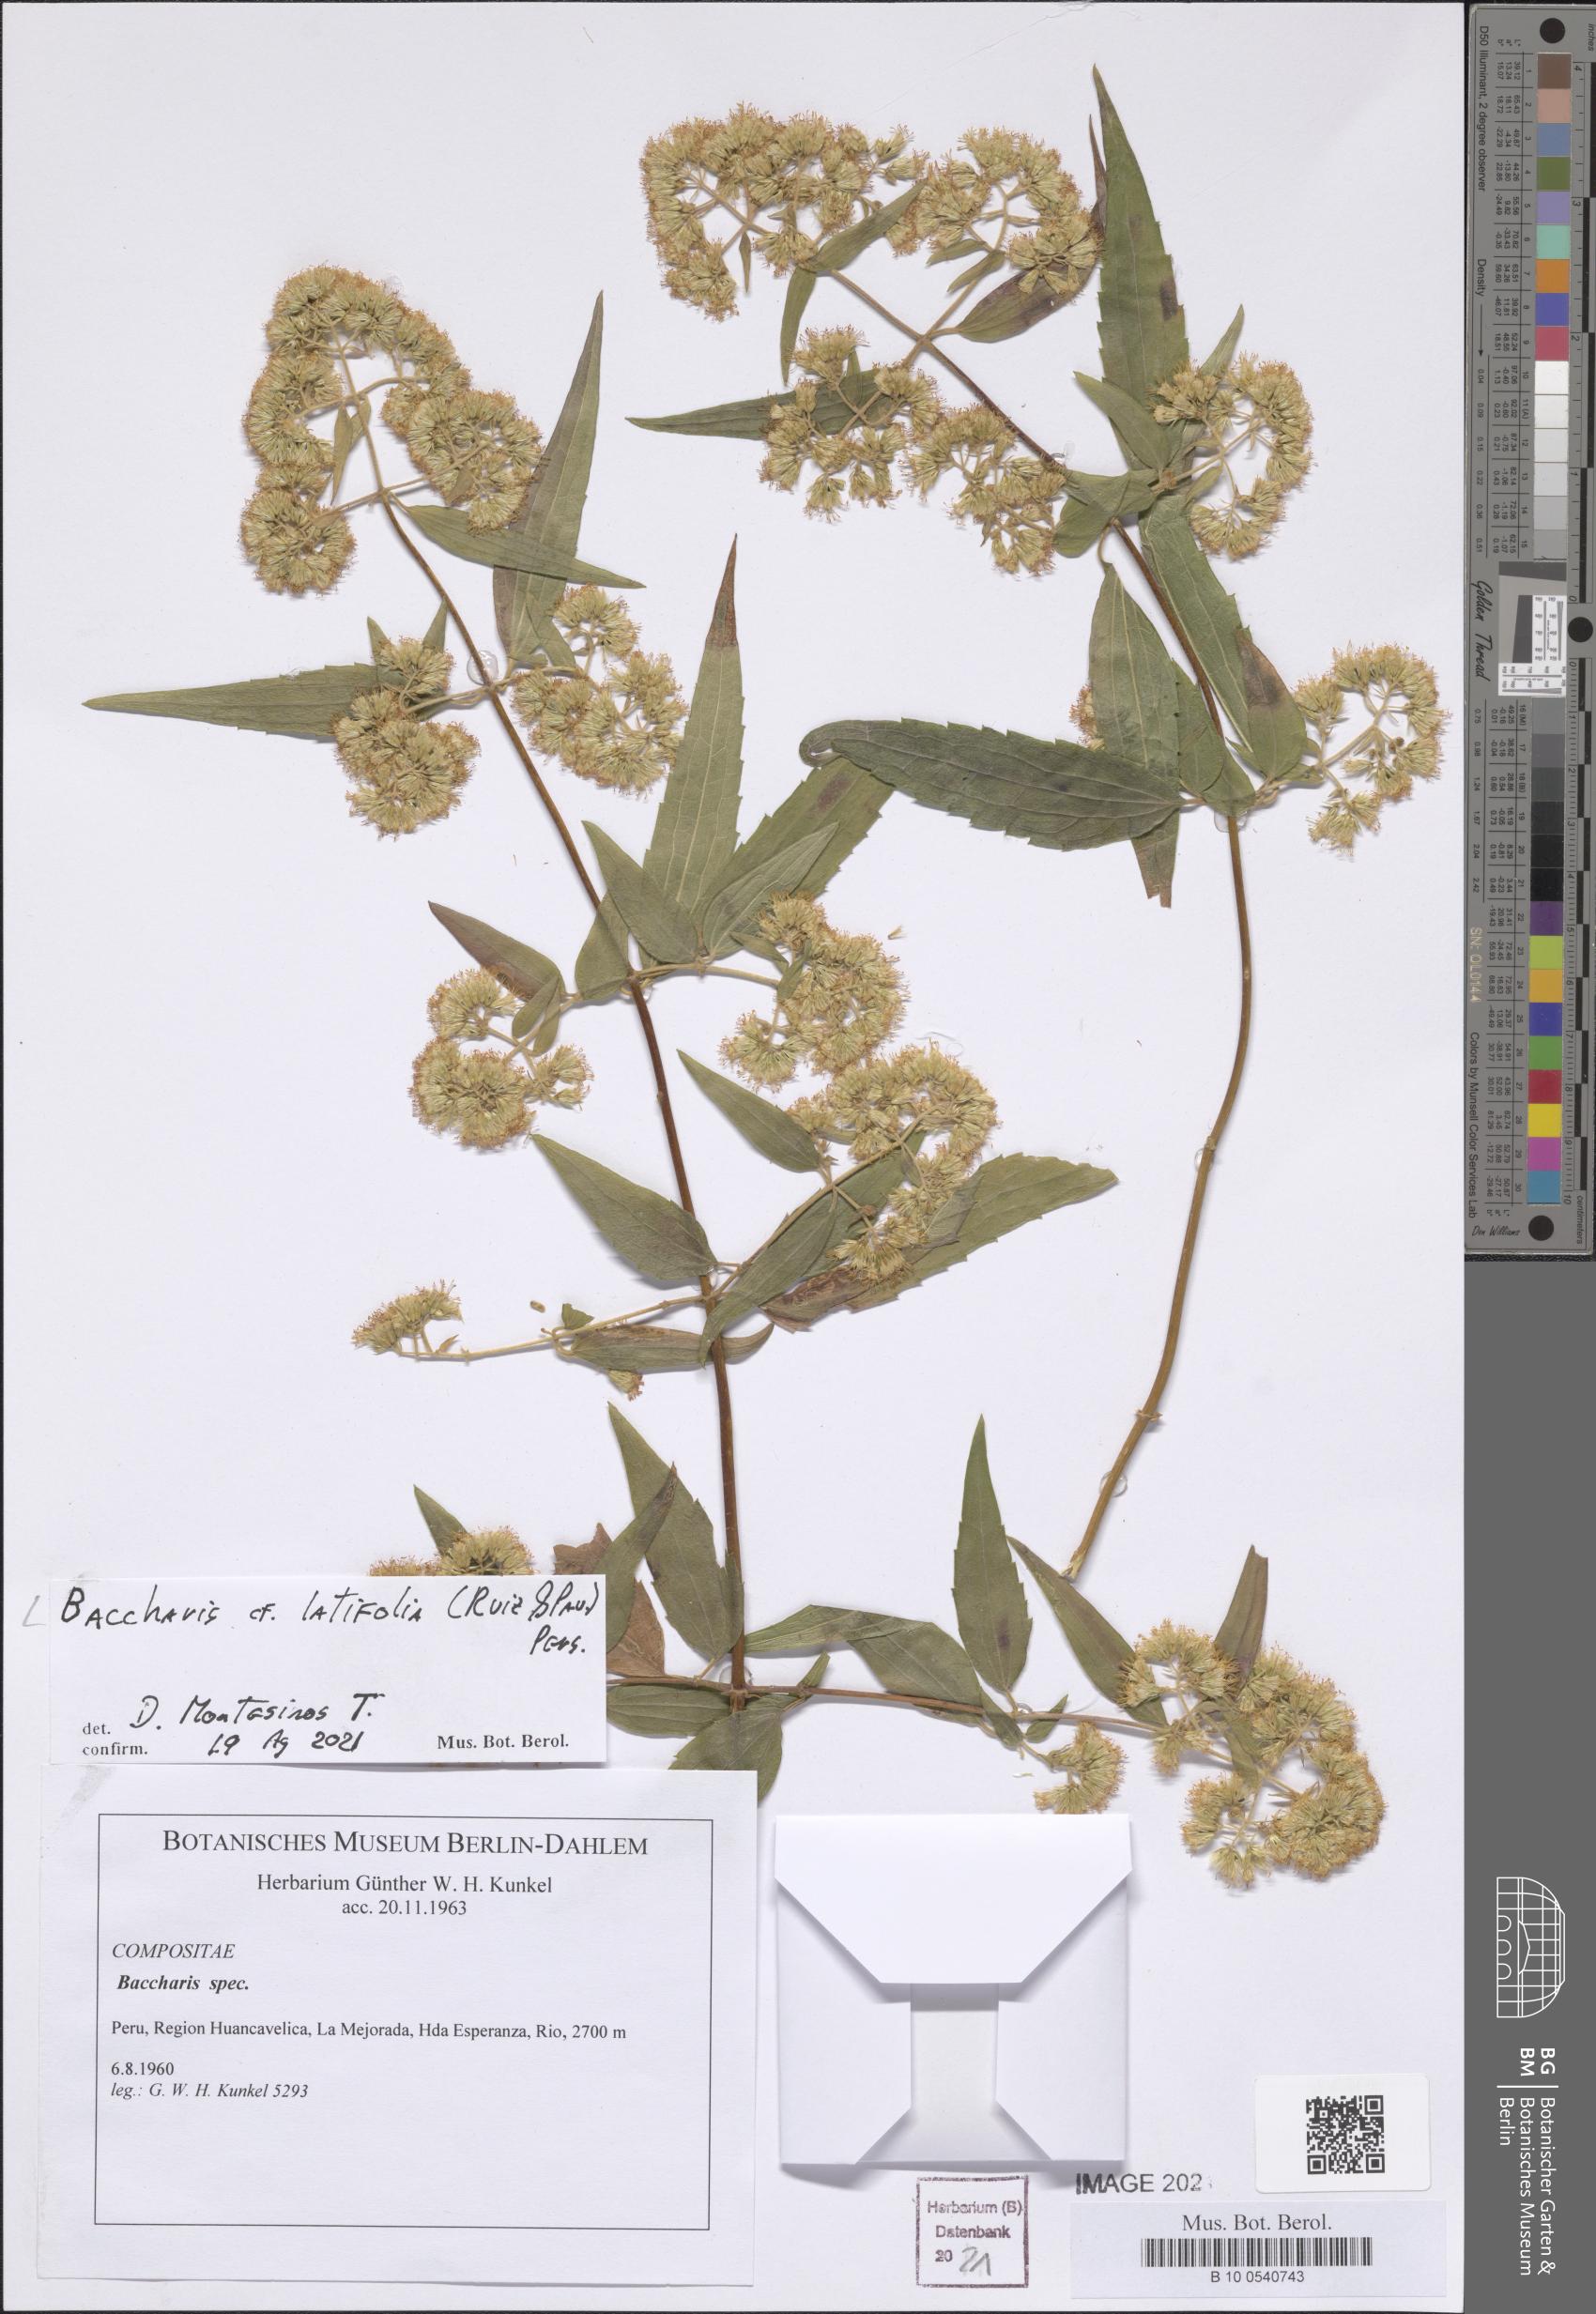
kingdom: Plantae
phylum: Tracheophyta
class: Magnoliopsida
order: Asterales
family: Asteraceae
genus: Baccharis
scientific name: Baccharis latifolia
